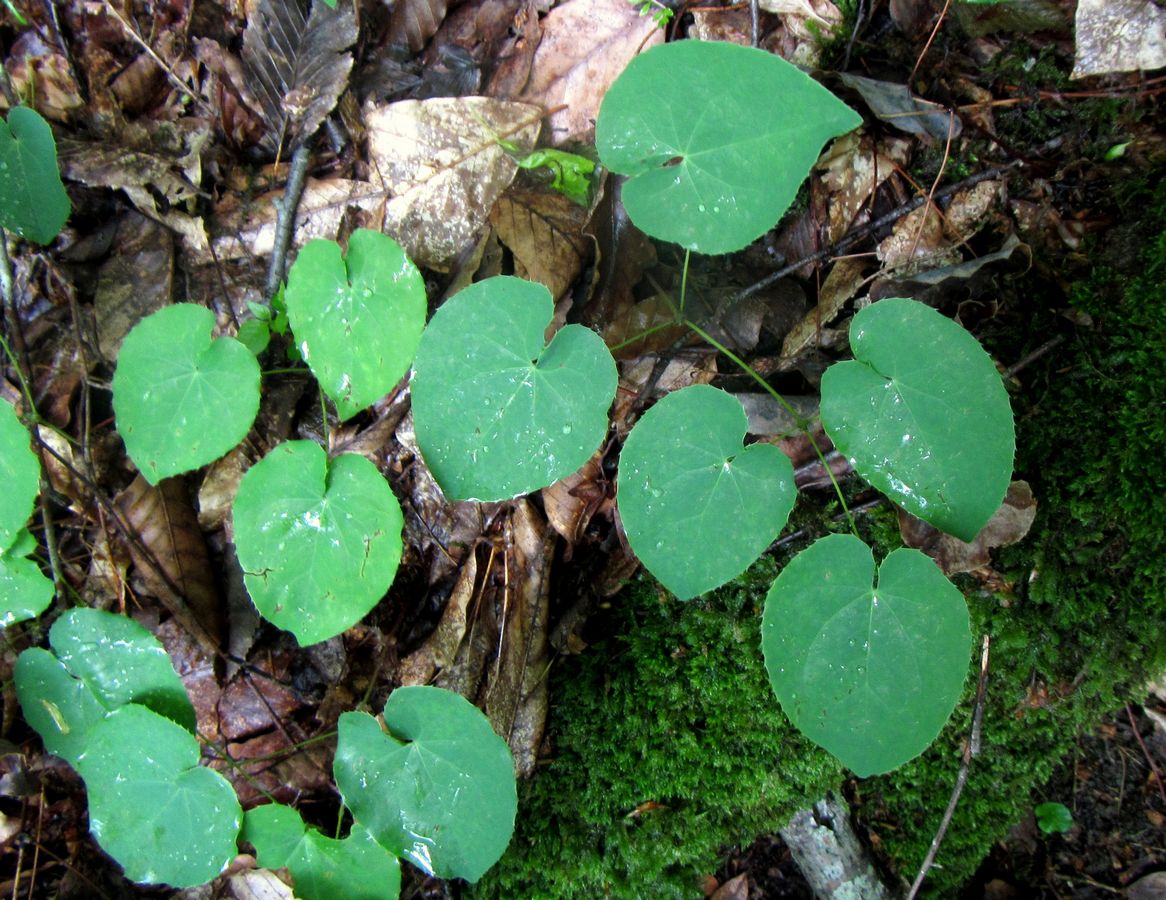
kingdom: Plantae
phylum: Tracheophyta
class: Magnoliopsida
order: Ranunculales
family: Berberidaceae
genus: Epimedium
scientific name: Epimedium pinnatum
